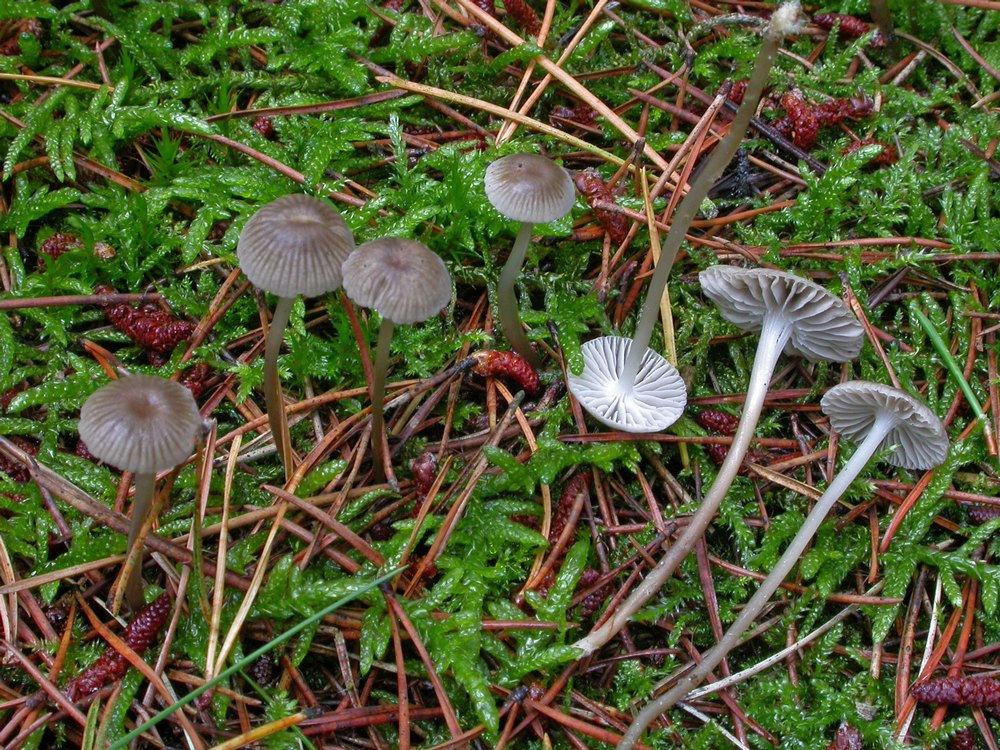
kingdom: Fungi
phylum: Basidiomycota
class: Agaricomycetes
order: Agaricales
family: Mycenaceae
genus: Mycena
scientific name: Mycena clavicularis
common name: fyrre-huesvamp
